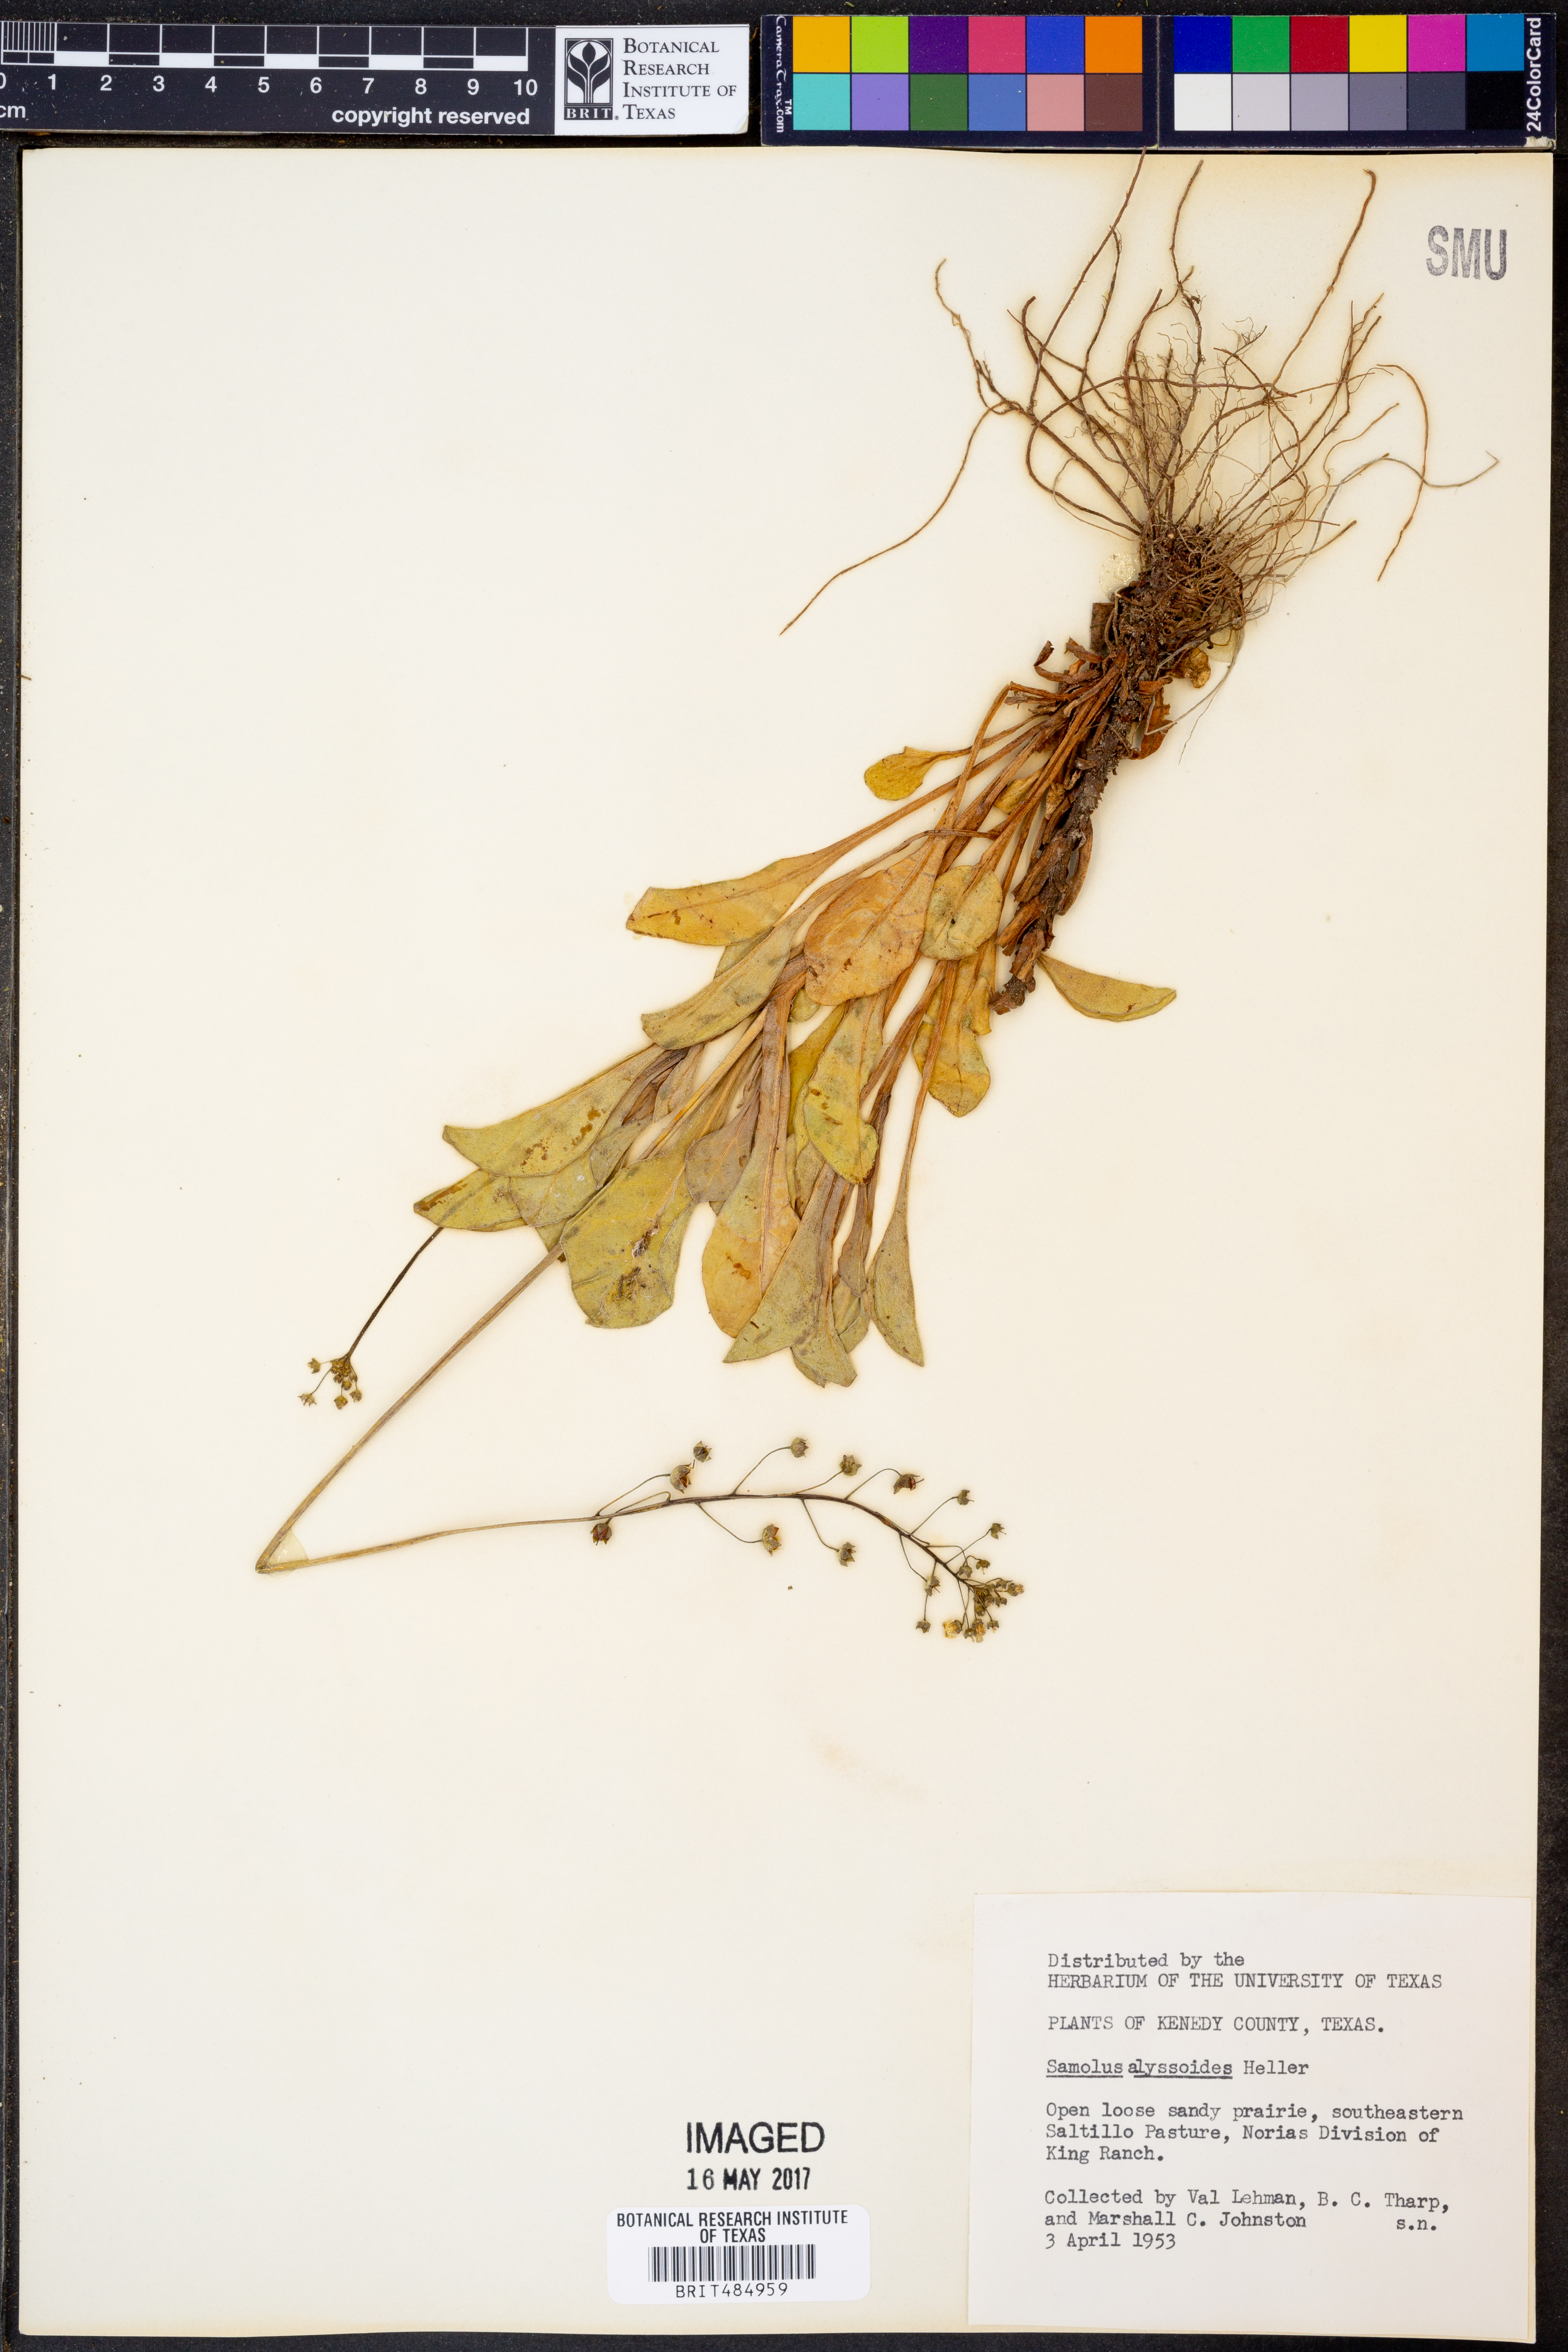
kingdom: Plantae
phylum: Tracheophyta
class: Magnoliopsida
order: Ericales
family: Primulaceae
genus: Samolus
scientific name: Samolus ebracteatus
